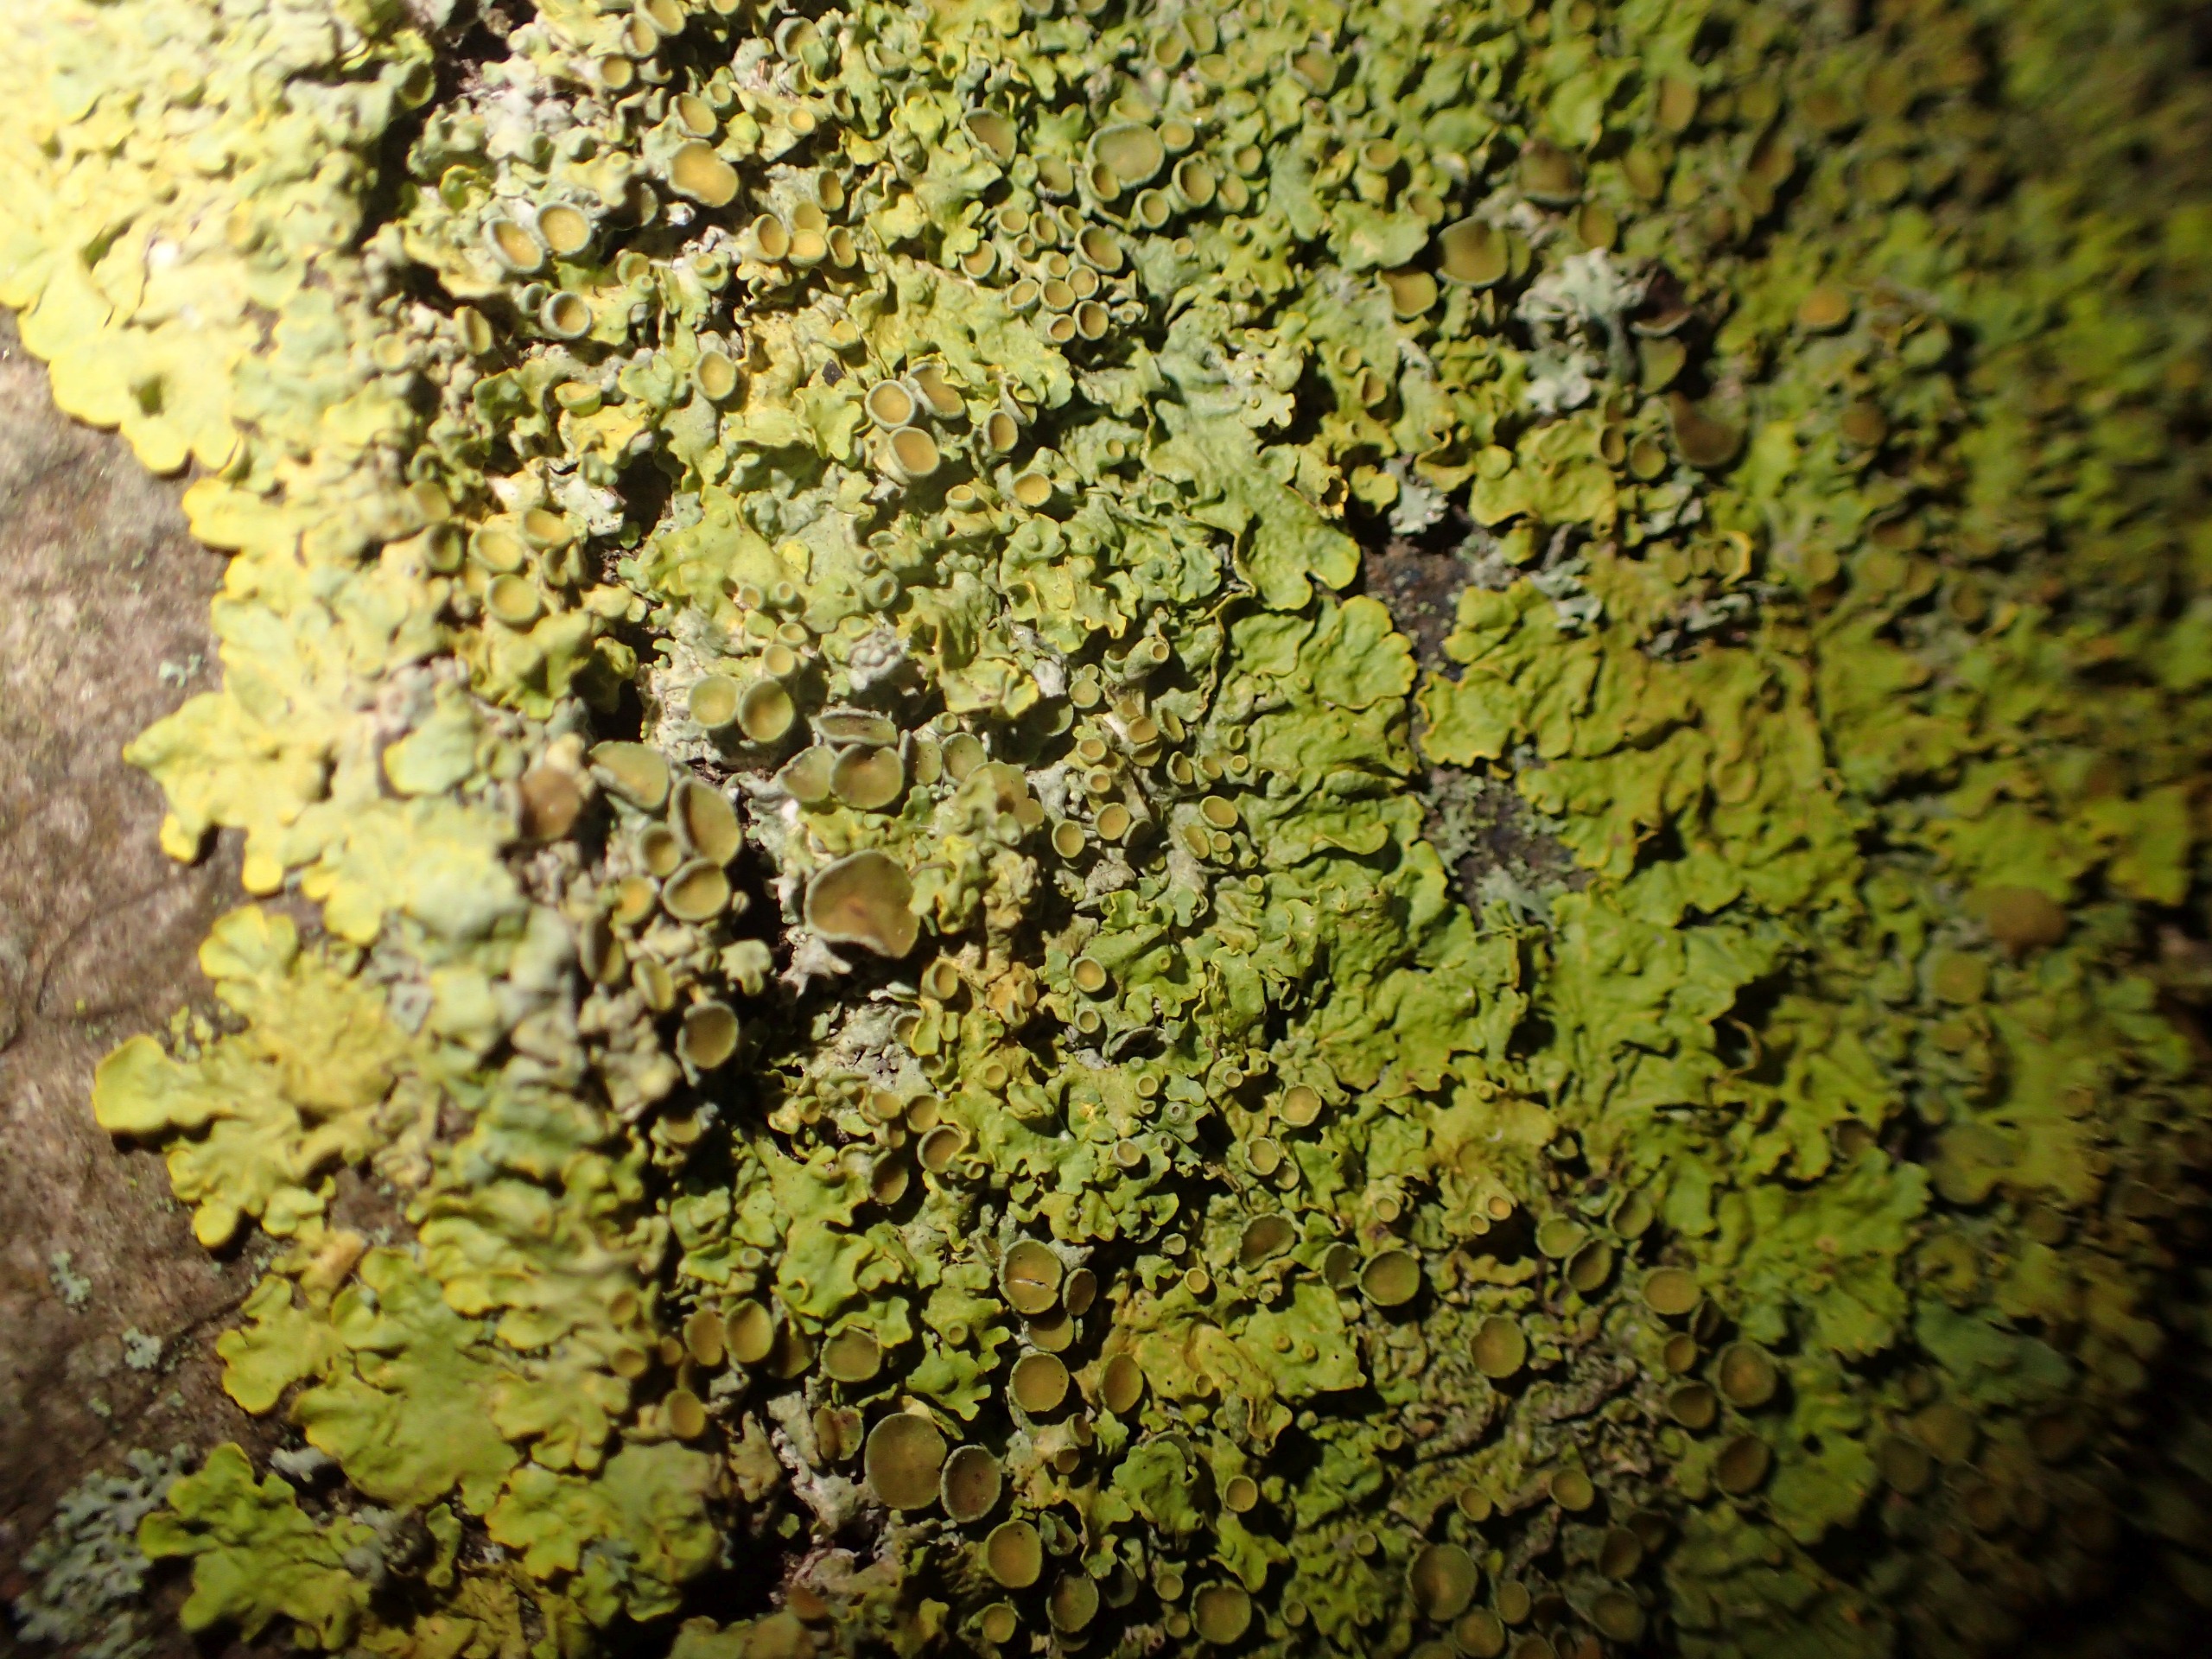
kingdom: Fungi
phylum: Ascomycota
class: Lecanoromycetes
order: Teloschistales
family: Teloschistaceae
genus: Xanthoria
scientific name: Xanthoria parietina
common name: Almindelig væggelav
